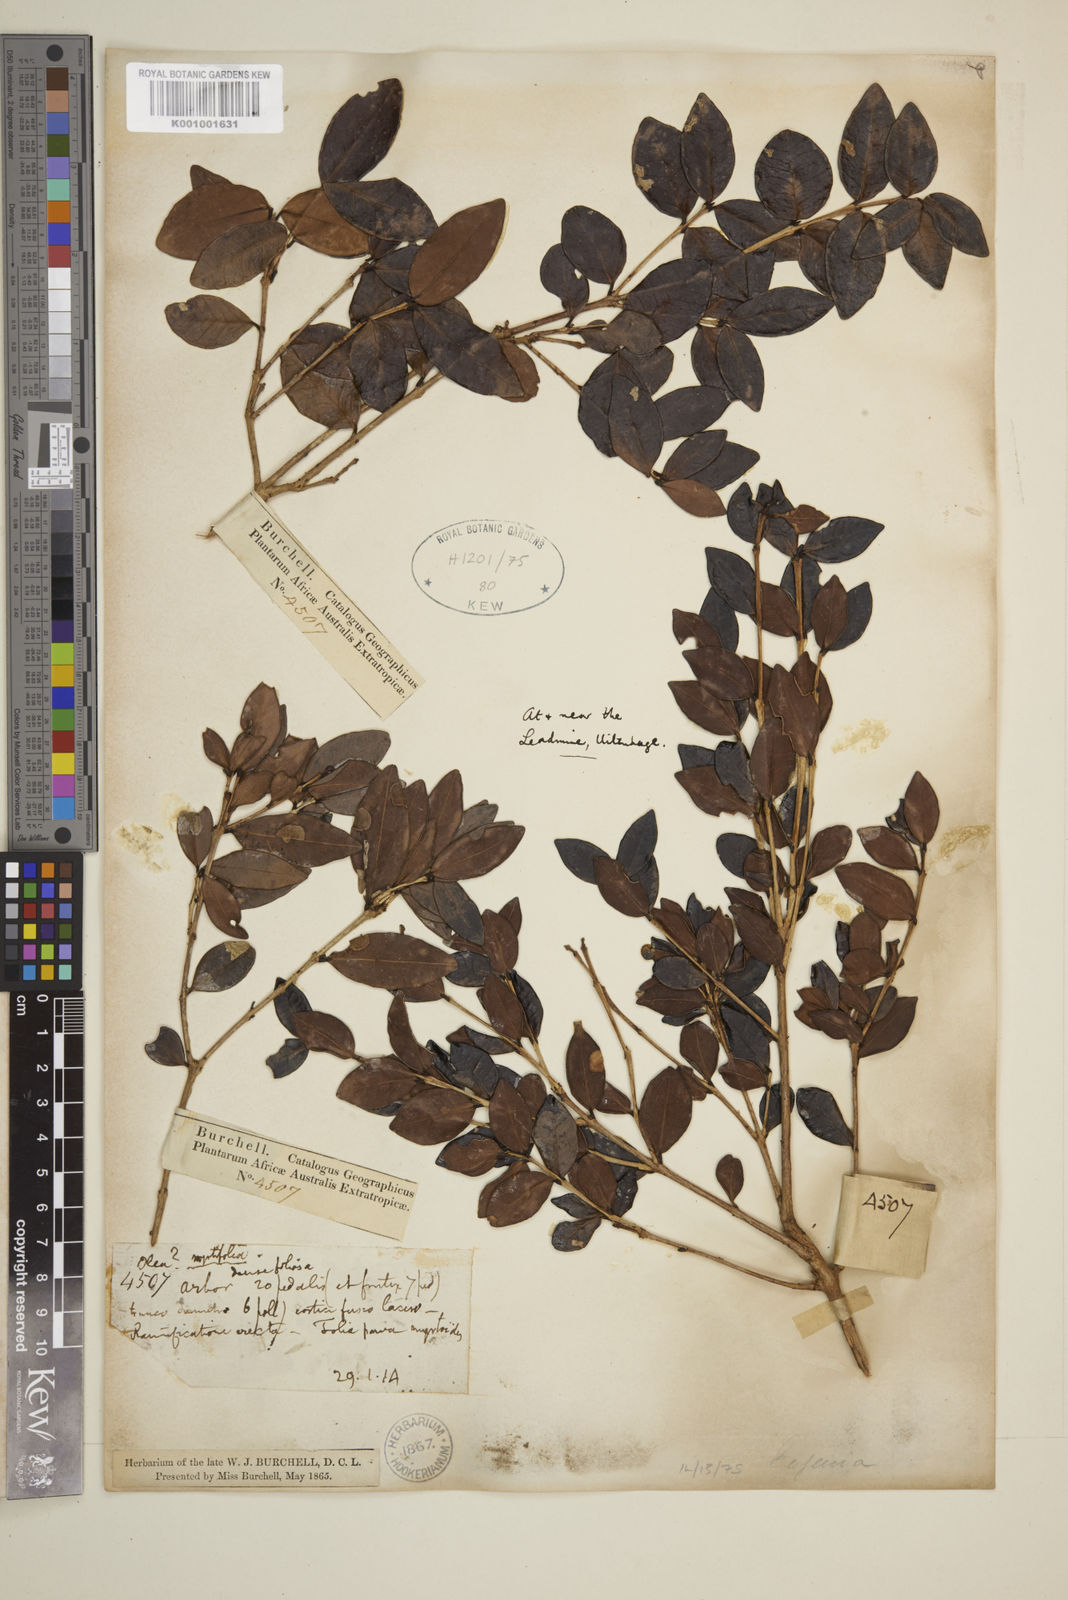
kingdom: Plantae
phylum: Tracheophyta
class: Magnoliopsida
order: Myrtales
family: Myrtaceae
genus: Eugenia
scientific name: Eugenia zeyheri
